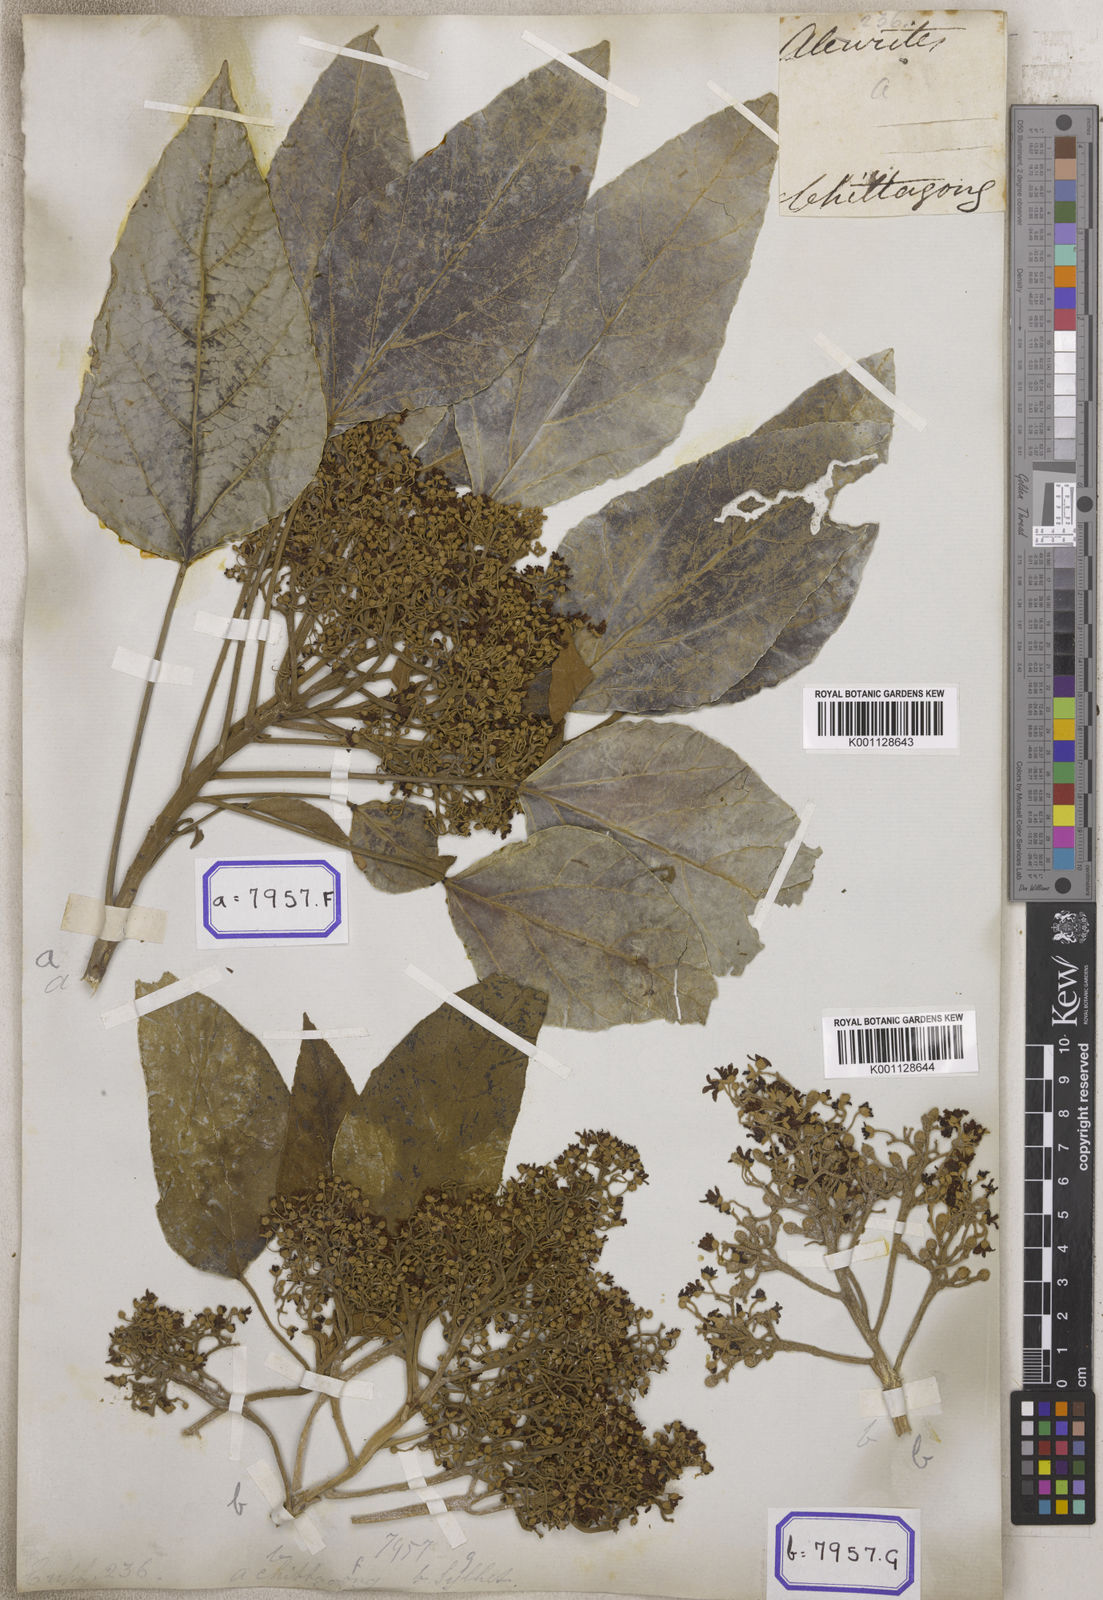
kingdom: Plantae
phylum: Tracheophyta
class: Magnoliopsida
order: Malpighiales
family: Euphorbiaceae
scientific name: Euphorbiaceae
